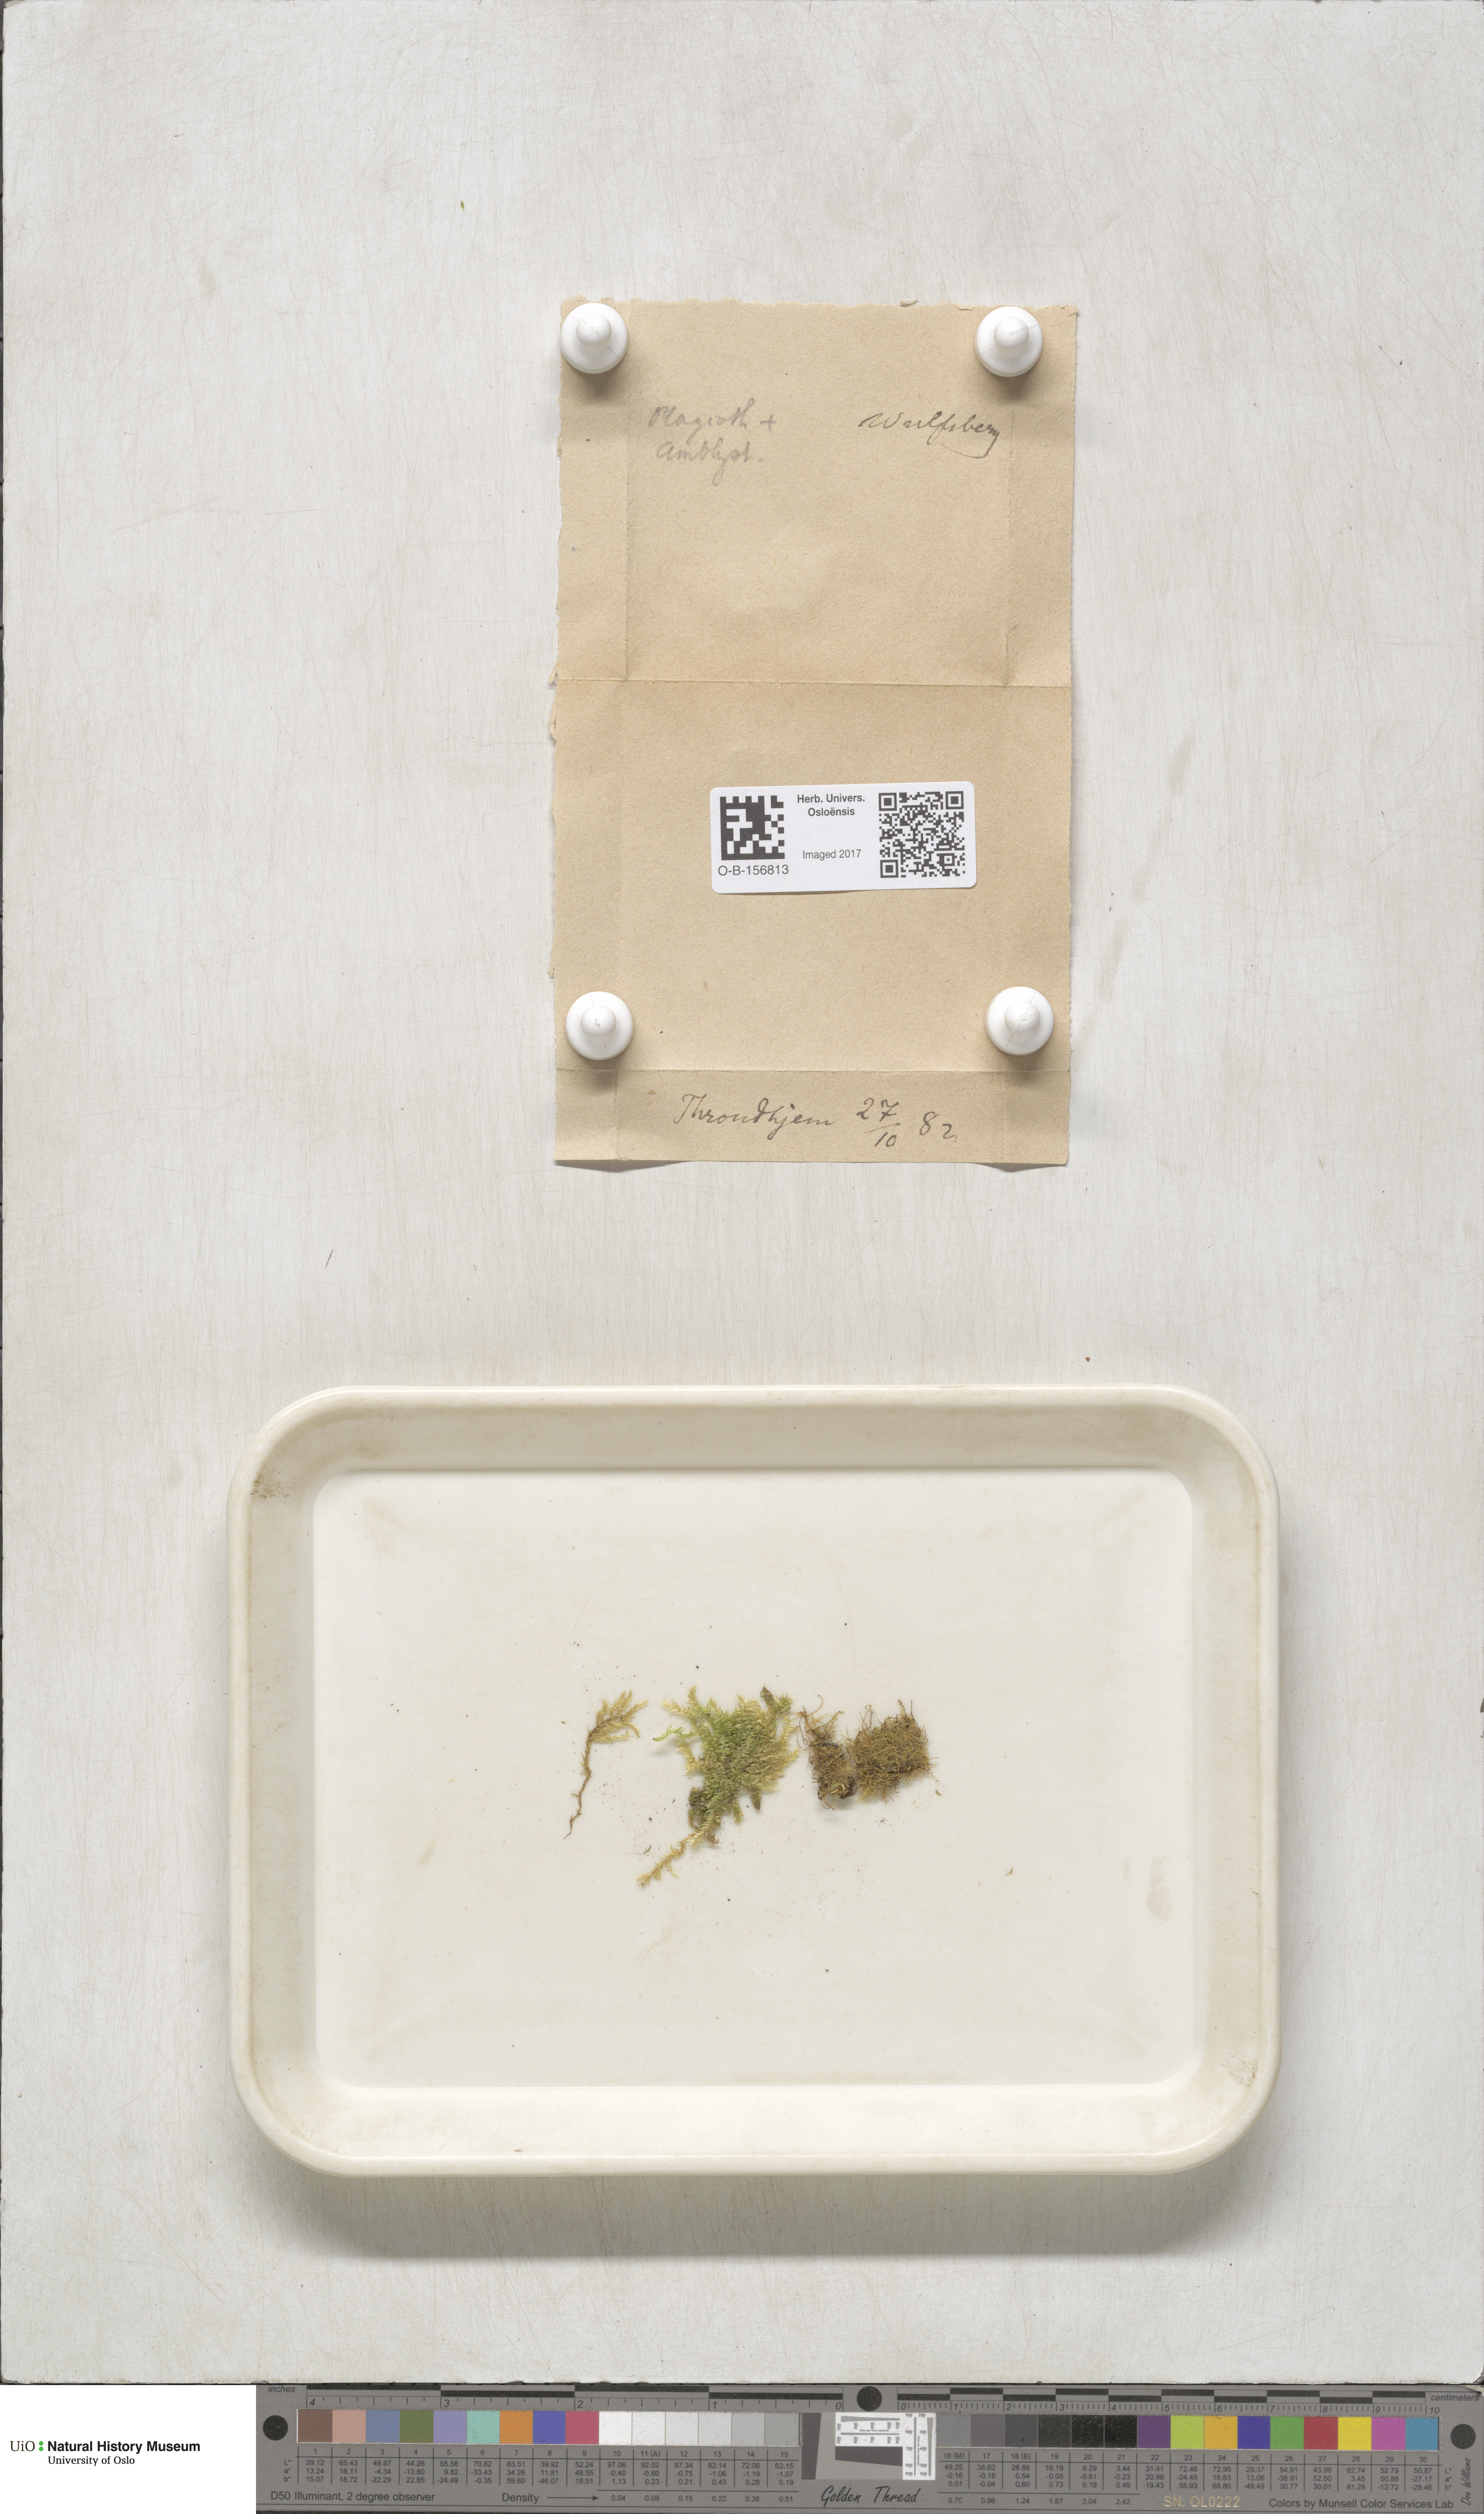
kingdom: Plantae
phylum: Bryophyta
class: Bryopsida
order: Hypnales
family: Plagiotheciaceae
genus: Plagiothecium
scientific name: Plagiothecium
